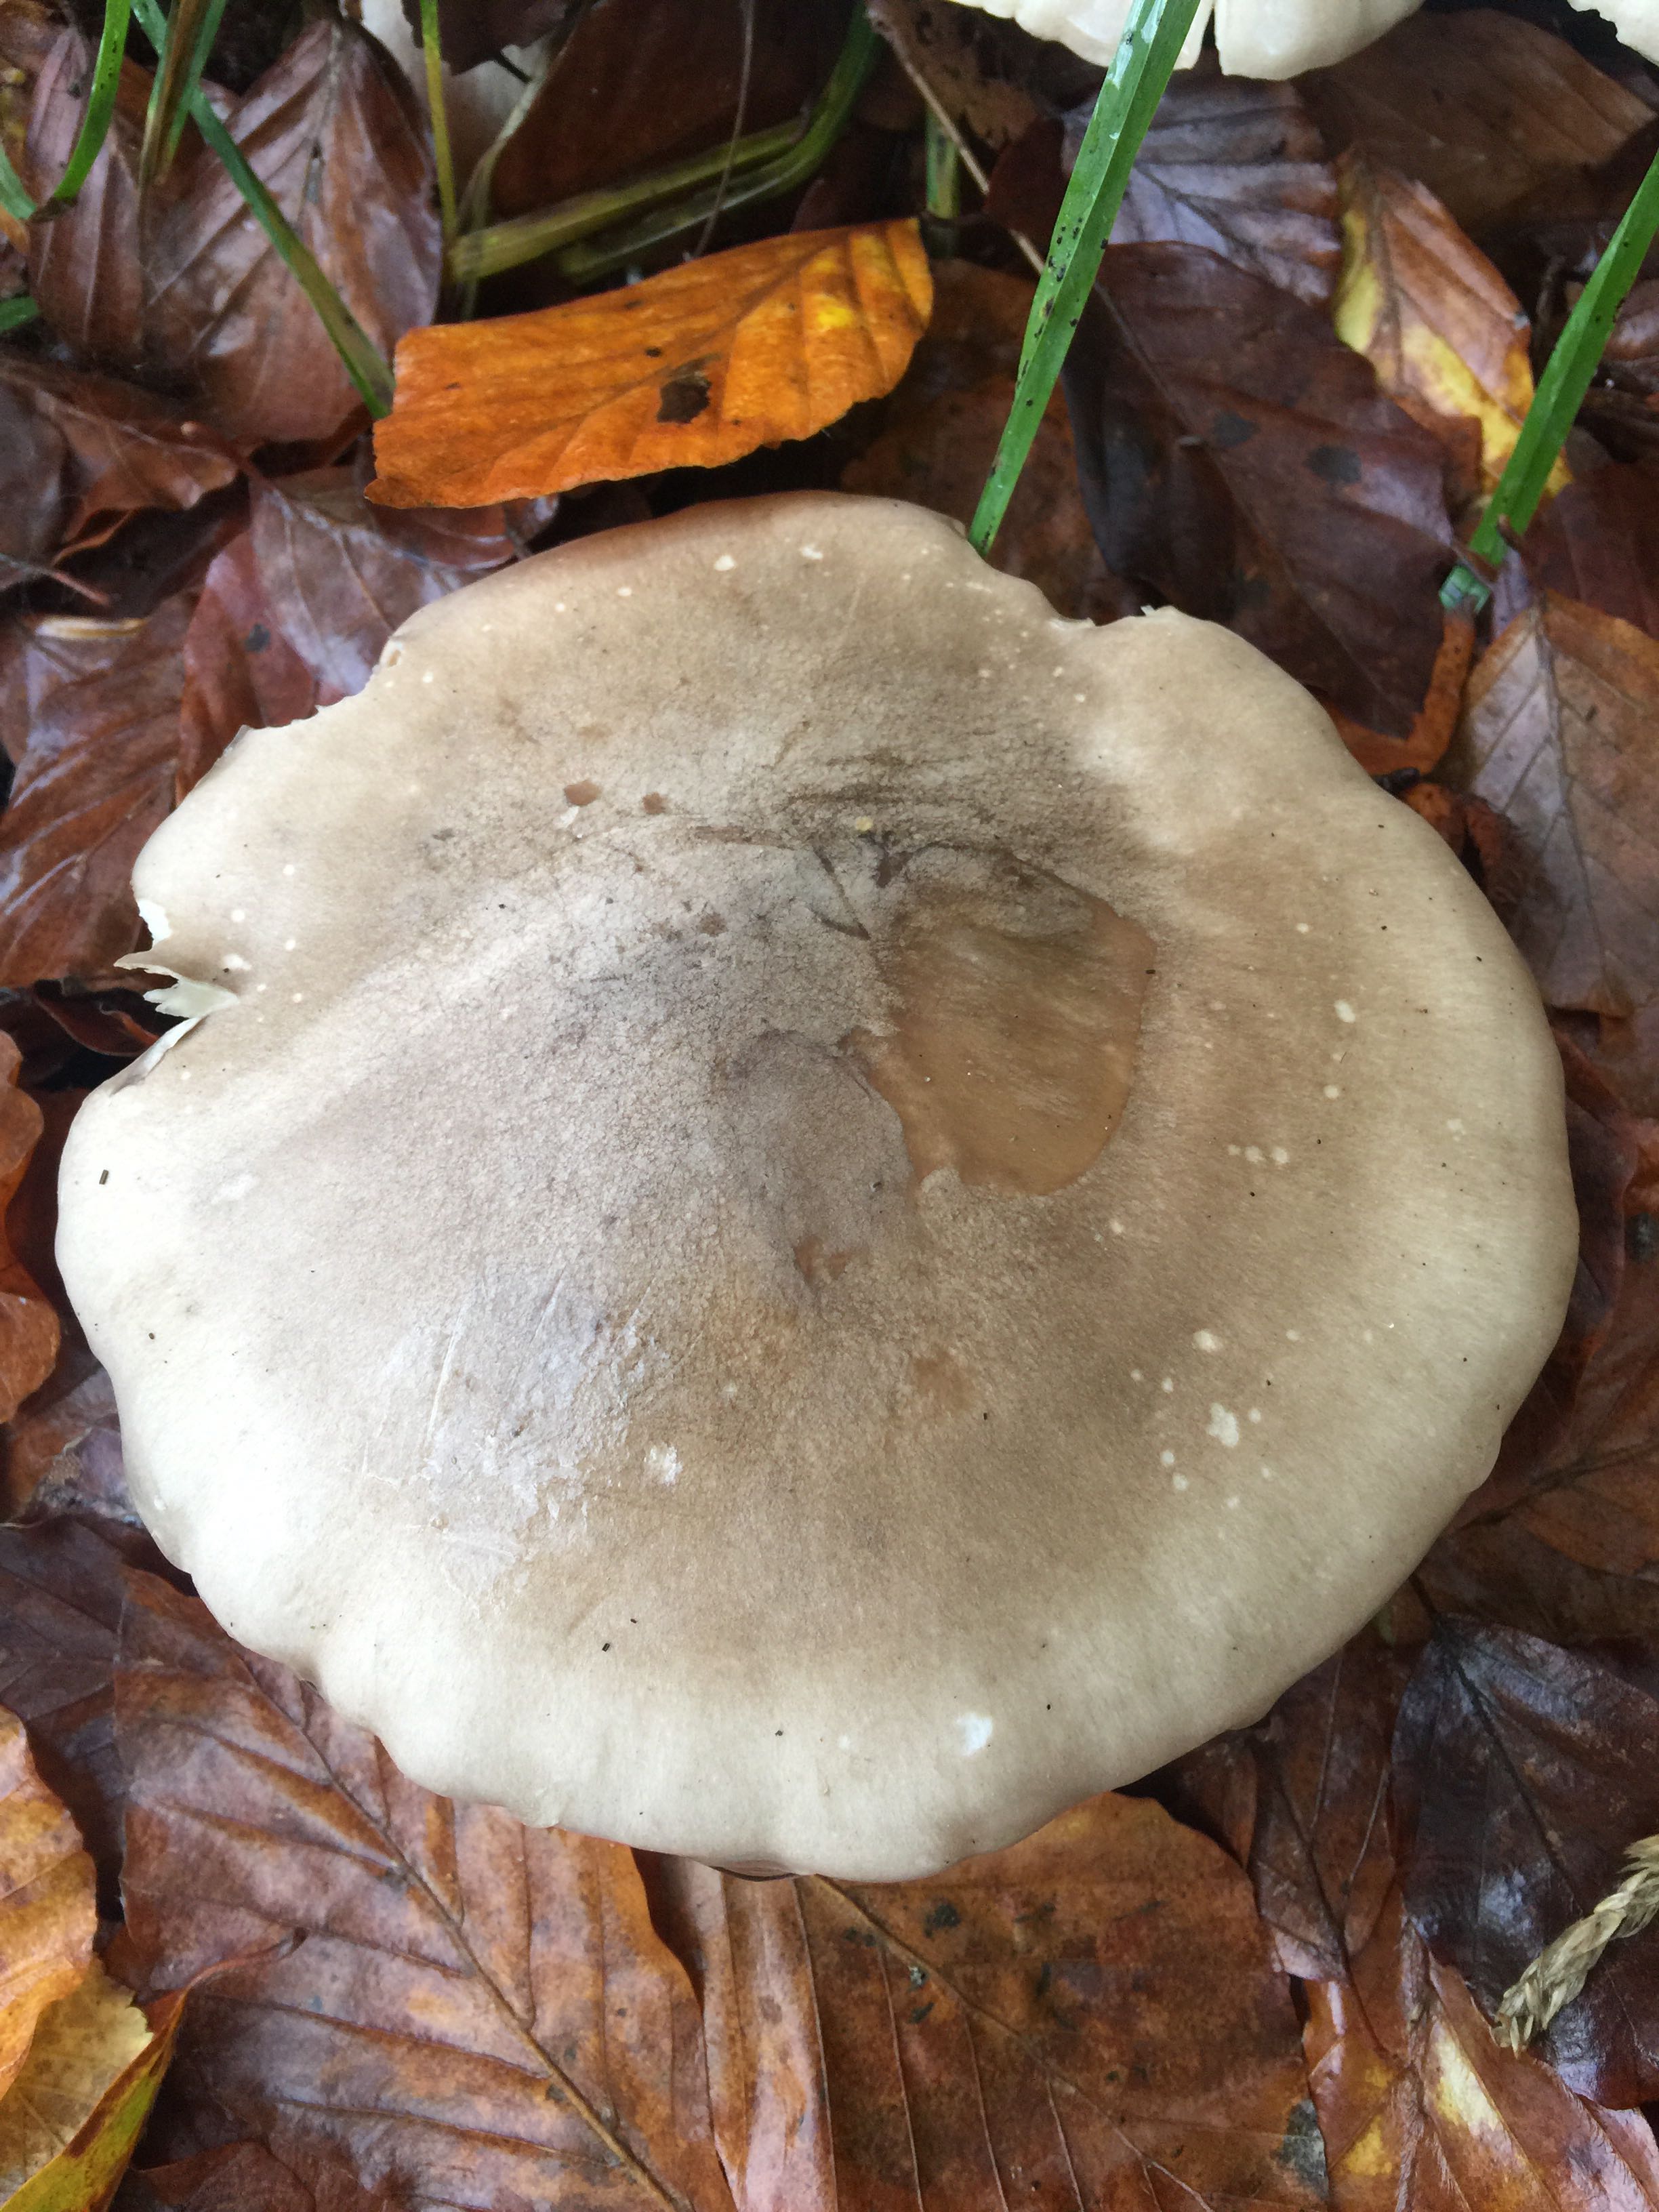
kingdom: Fungi
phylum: Basidiomycota
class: Agaricomycetes
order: Agaricales
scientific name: Agaricales
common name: champignonordenen
